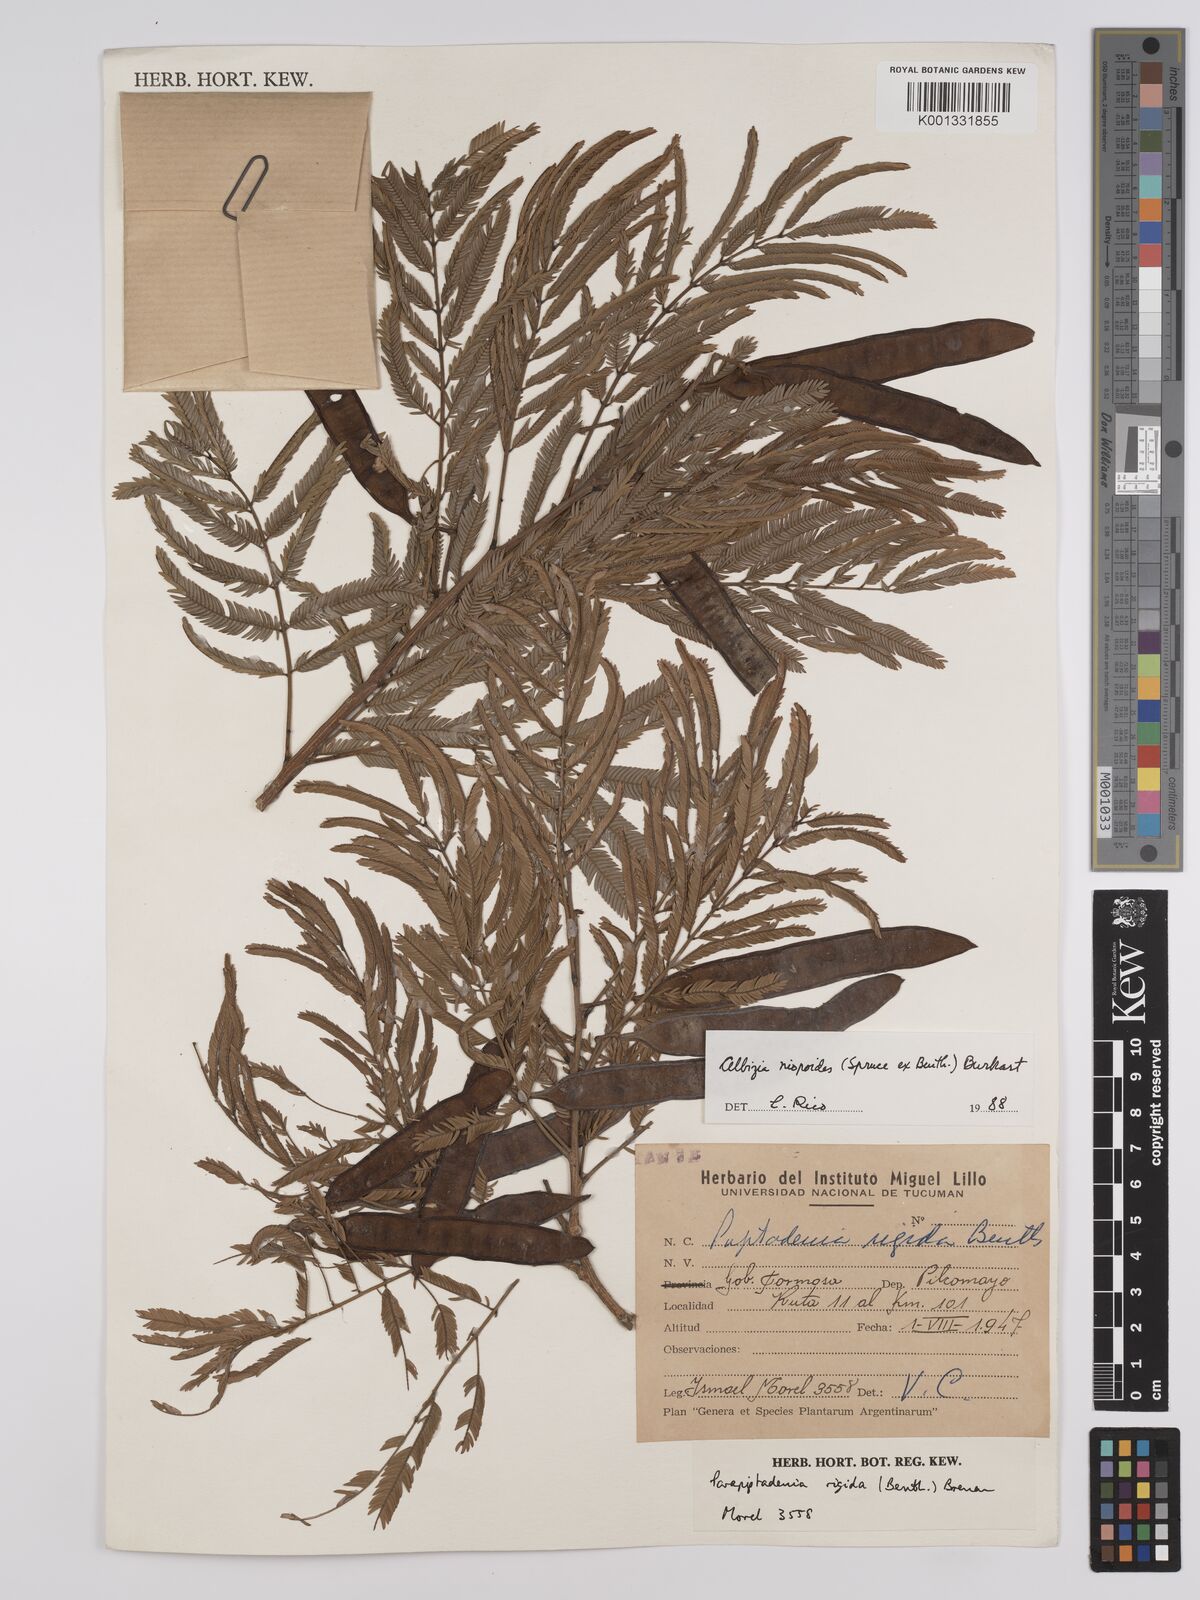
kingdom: Plantae
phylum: Tracheophyta
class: Magnoliopsida
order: Fabales
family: Fabaceae
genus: Albizia
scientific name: Albizia niopoides
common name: Silk tree
